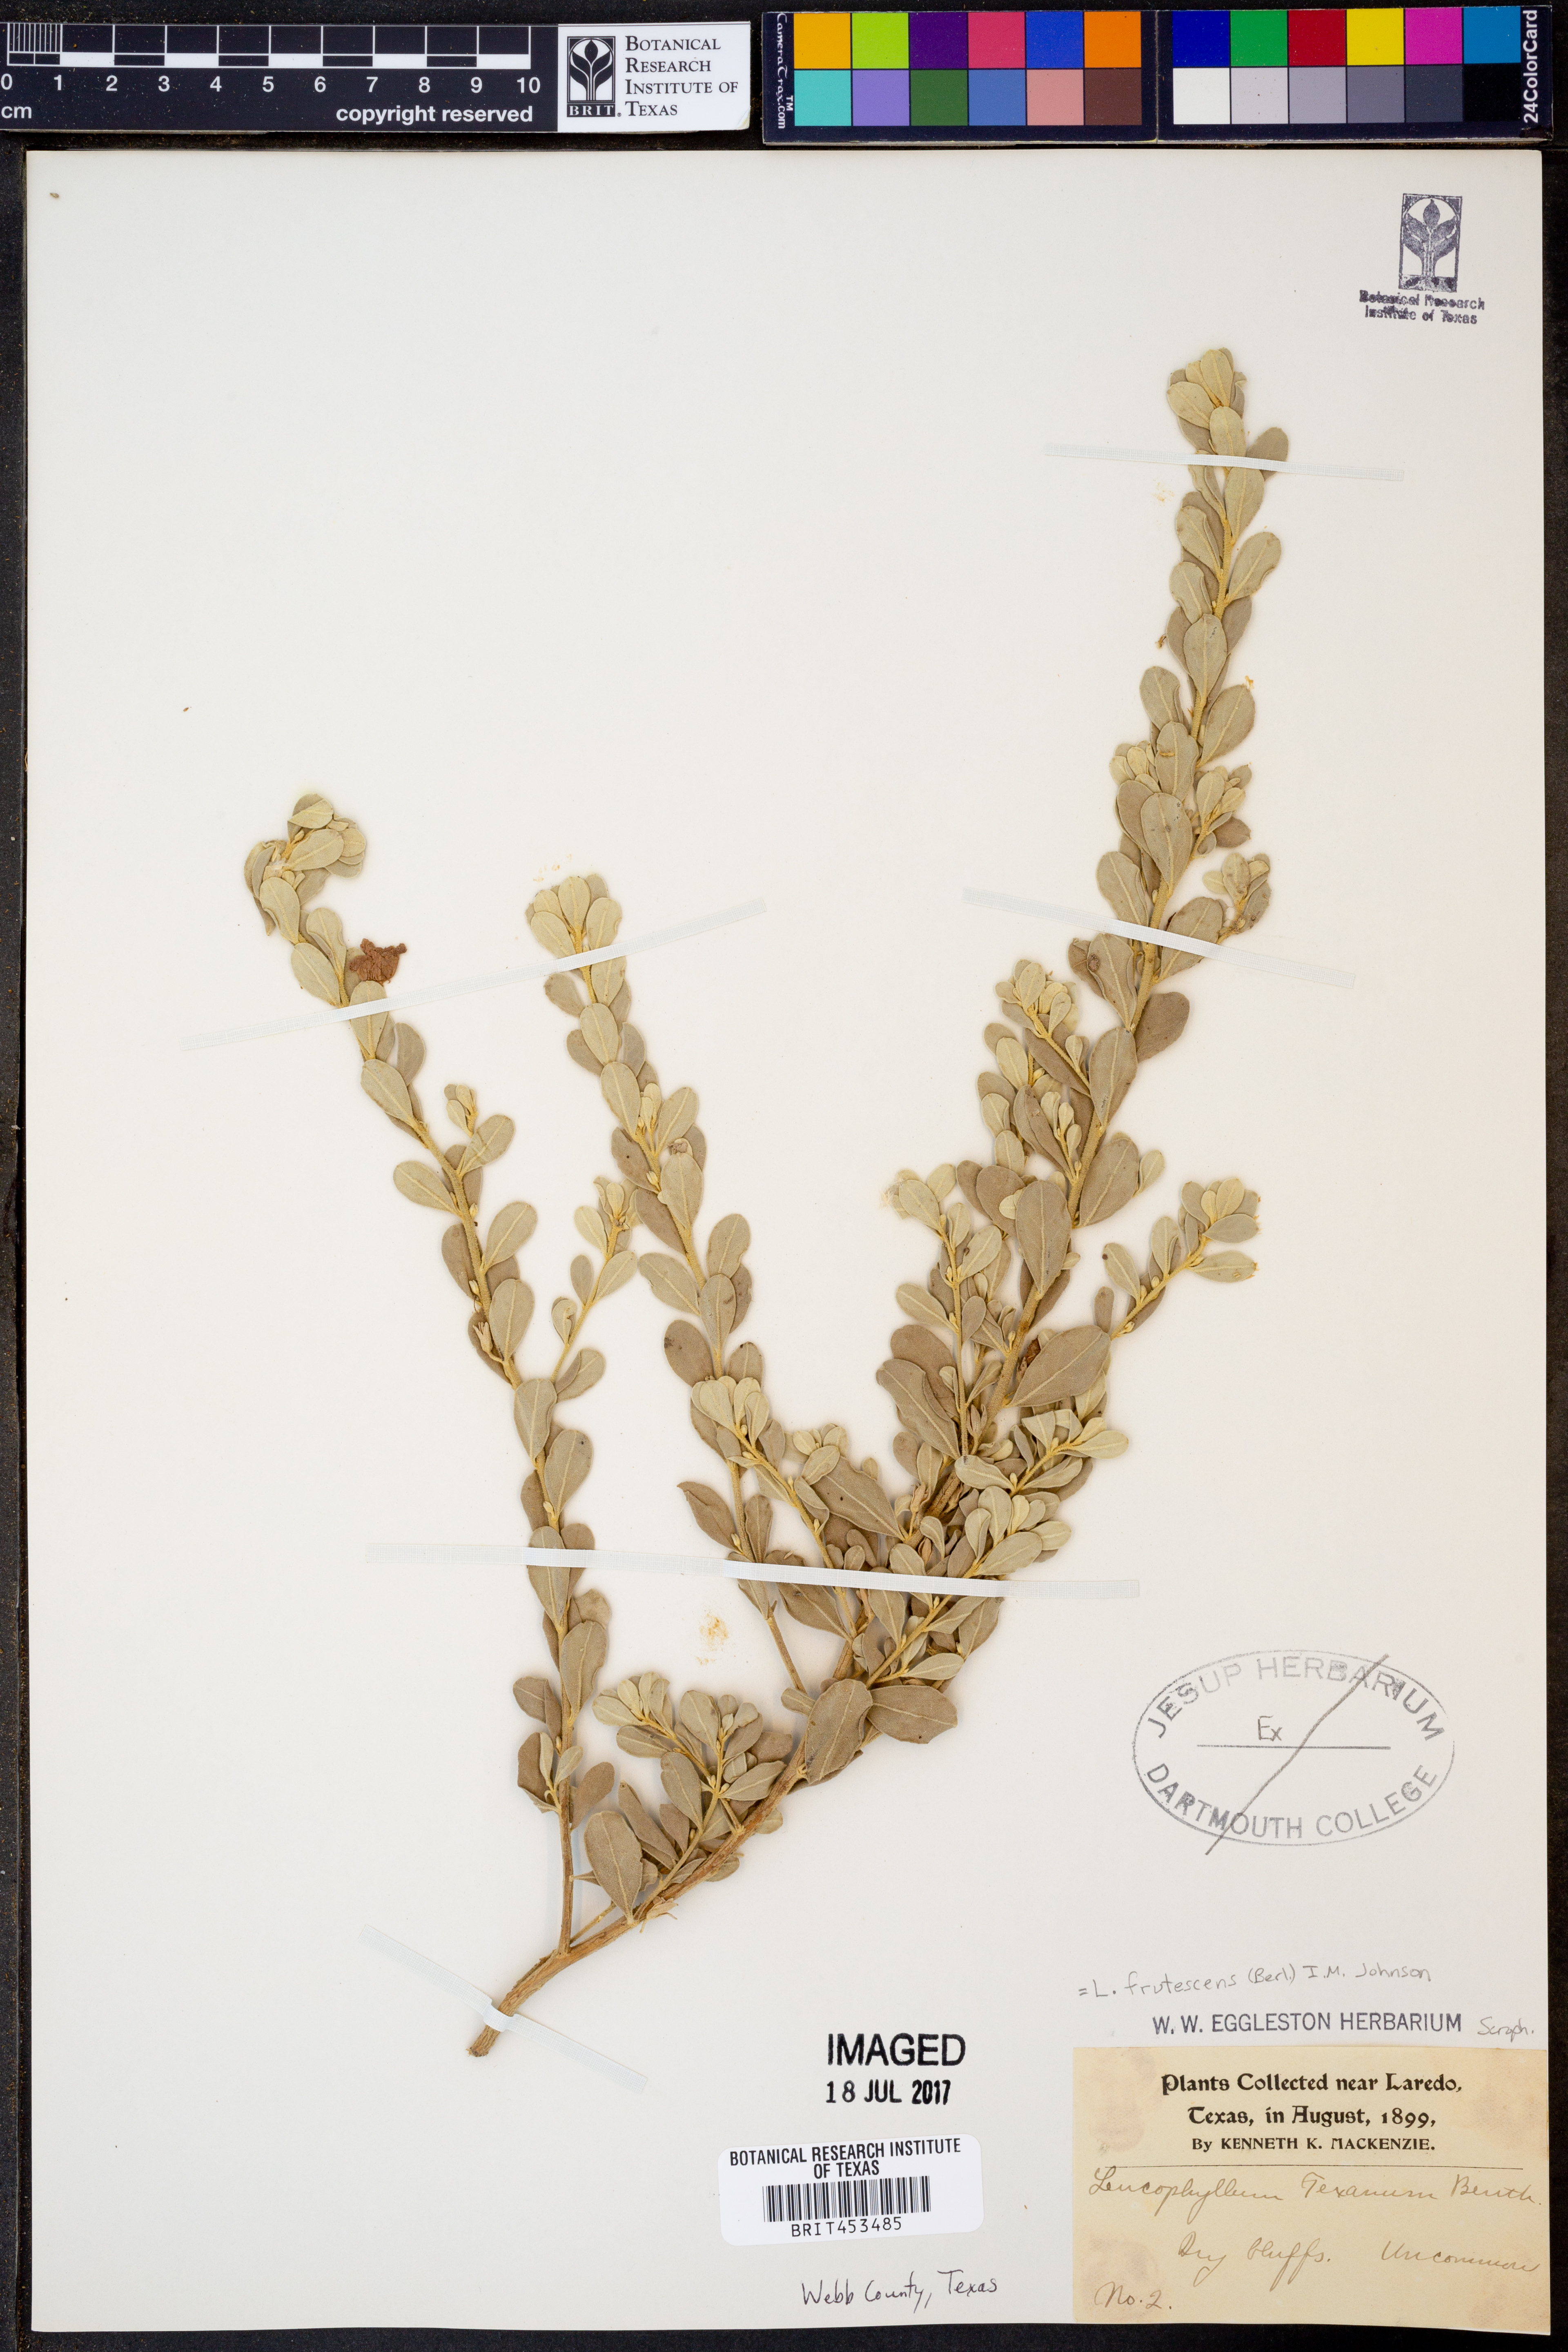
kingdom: Plantae
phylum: Tracheophyta
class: Magnoliopsida
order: Lamiales
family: Scrophulariaceae
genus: Leucophyllum
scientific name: Leucophyllum frutescens
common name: Texas silverleaf
